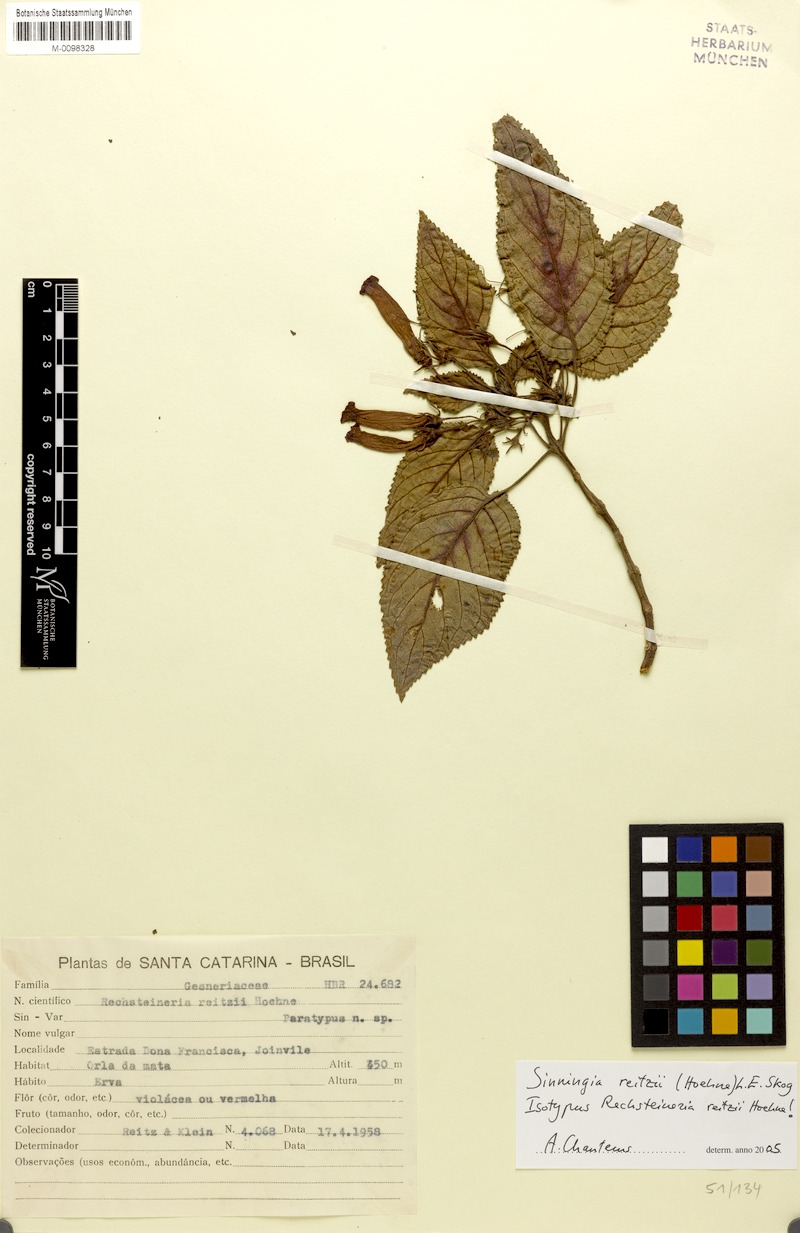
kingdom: Plantae
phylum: Tracheophyta
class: Magnoliopsida
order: Lamiales
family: Gesneriaceae
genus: Sinningia
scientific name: Sinningia reitzii
